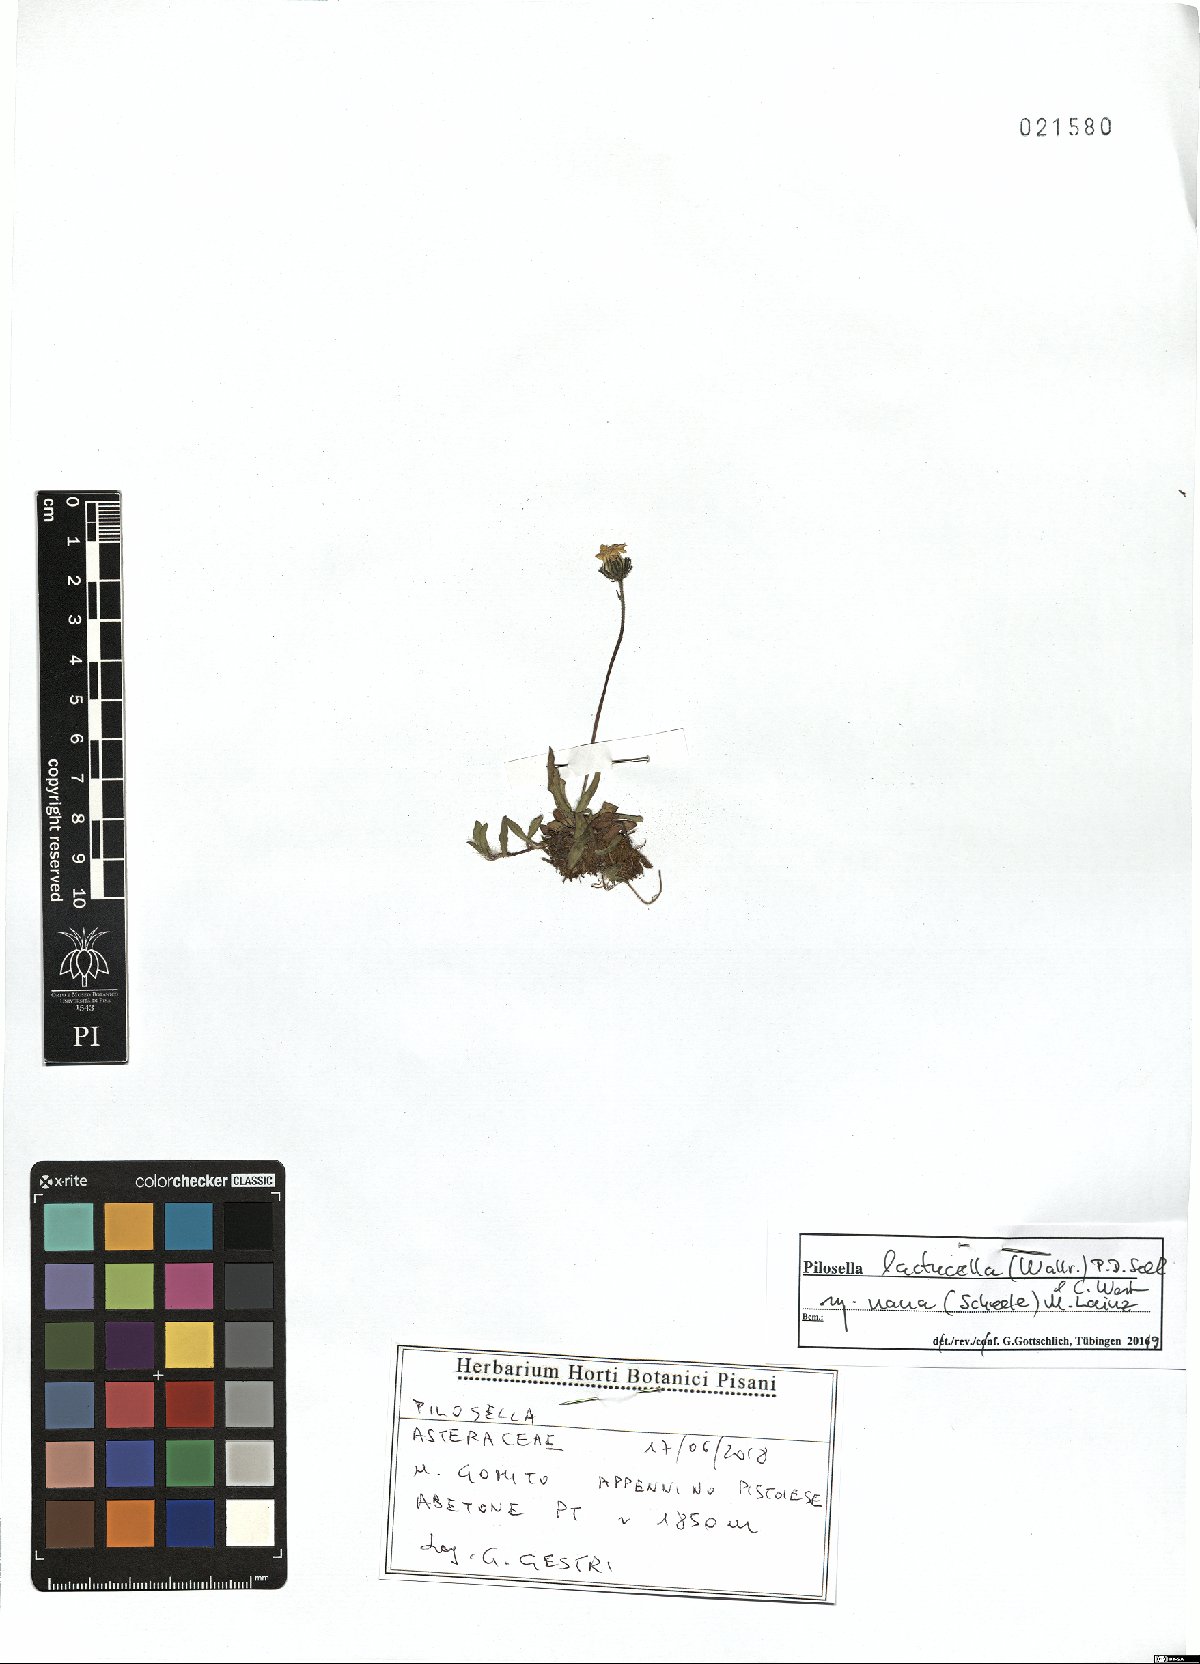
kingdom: Plantae
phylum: Tracheophyta
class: Magnoliopsida
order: Asterales
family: Asteraceae
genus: Pilosella
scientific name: Pilosella lactucella
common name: Glaucous fox-and-cubs
